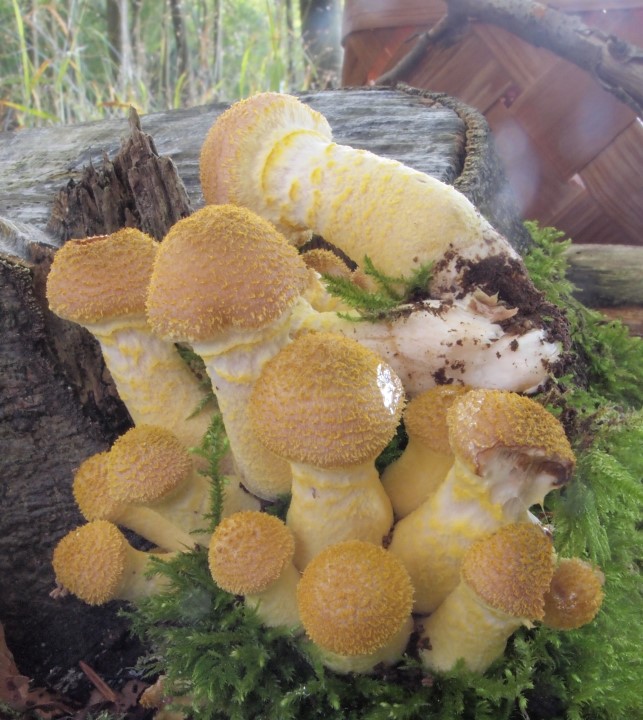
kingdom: Fungi
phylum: Basidiomycota
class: Agaricomycetes
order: Agaricales
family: Physalacriaceae
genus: Armillaria
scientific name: Armillaria lutea
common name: køllestokket honningsvamp
